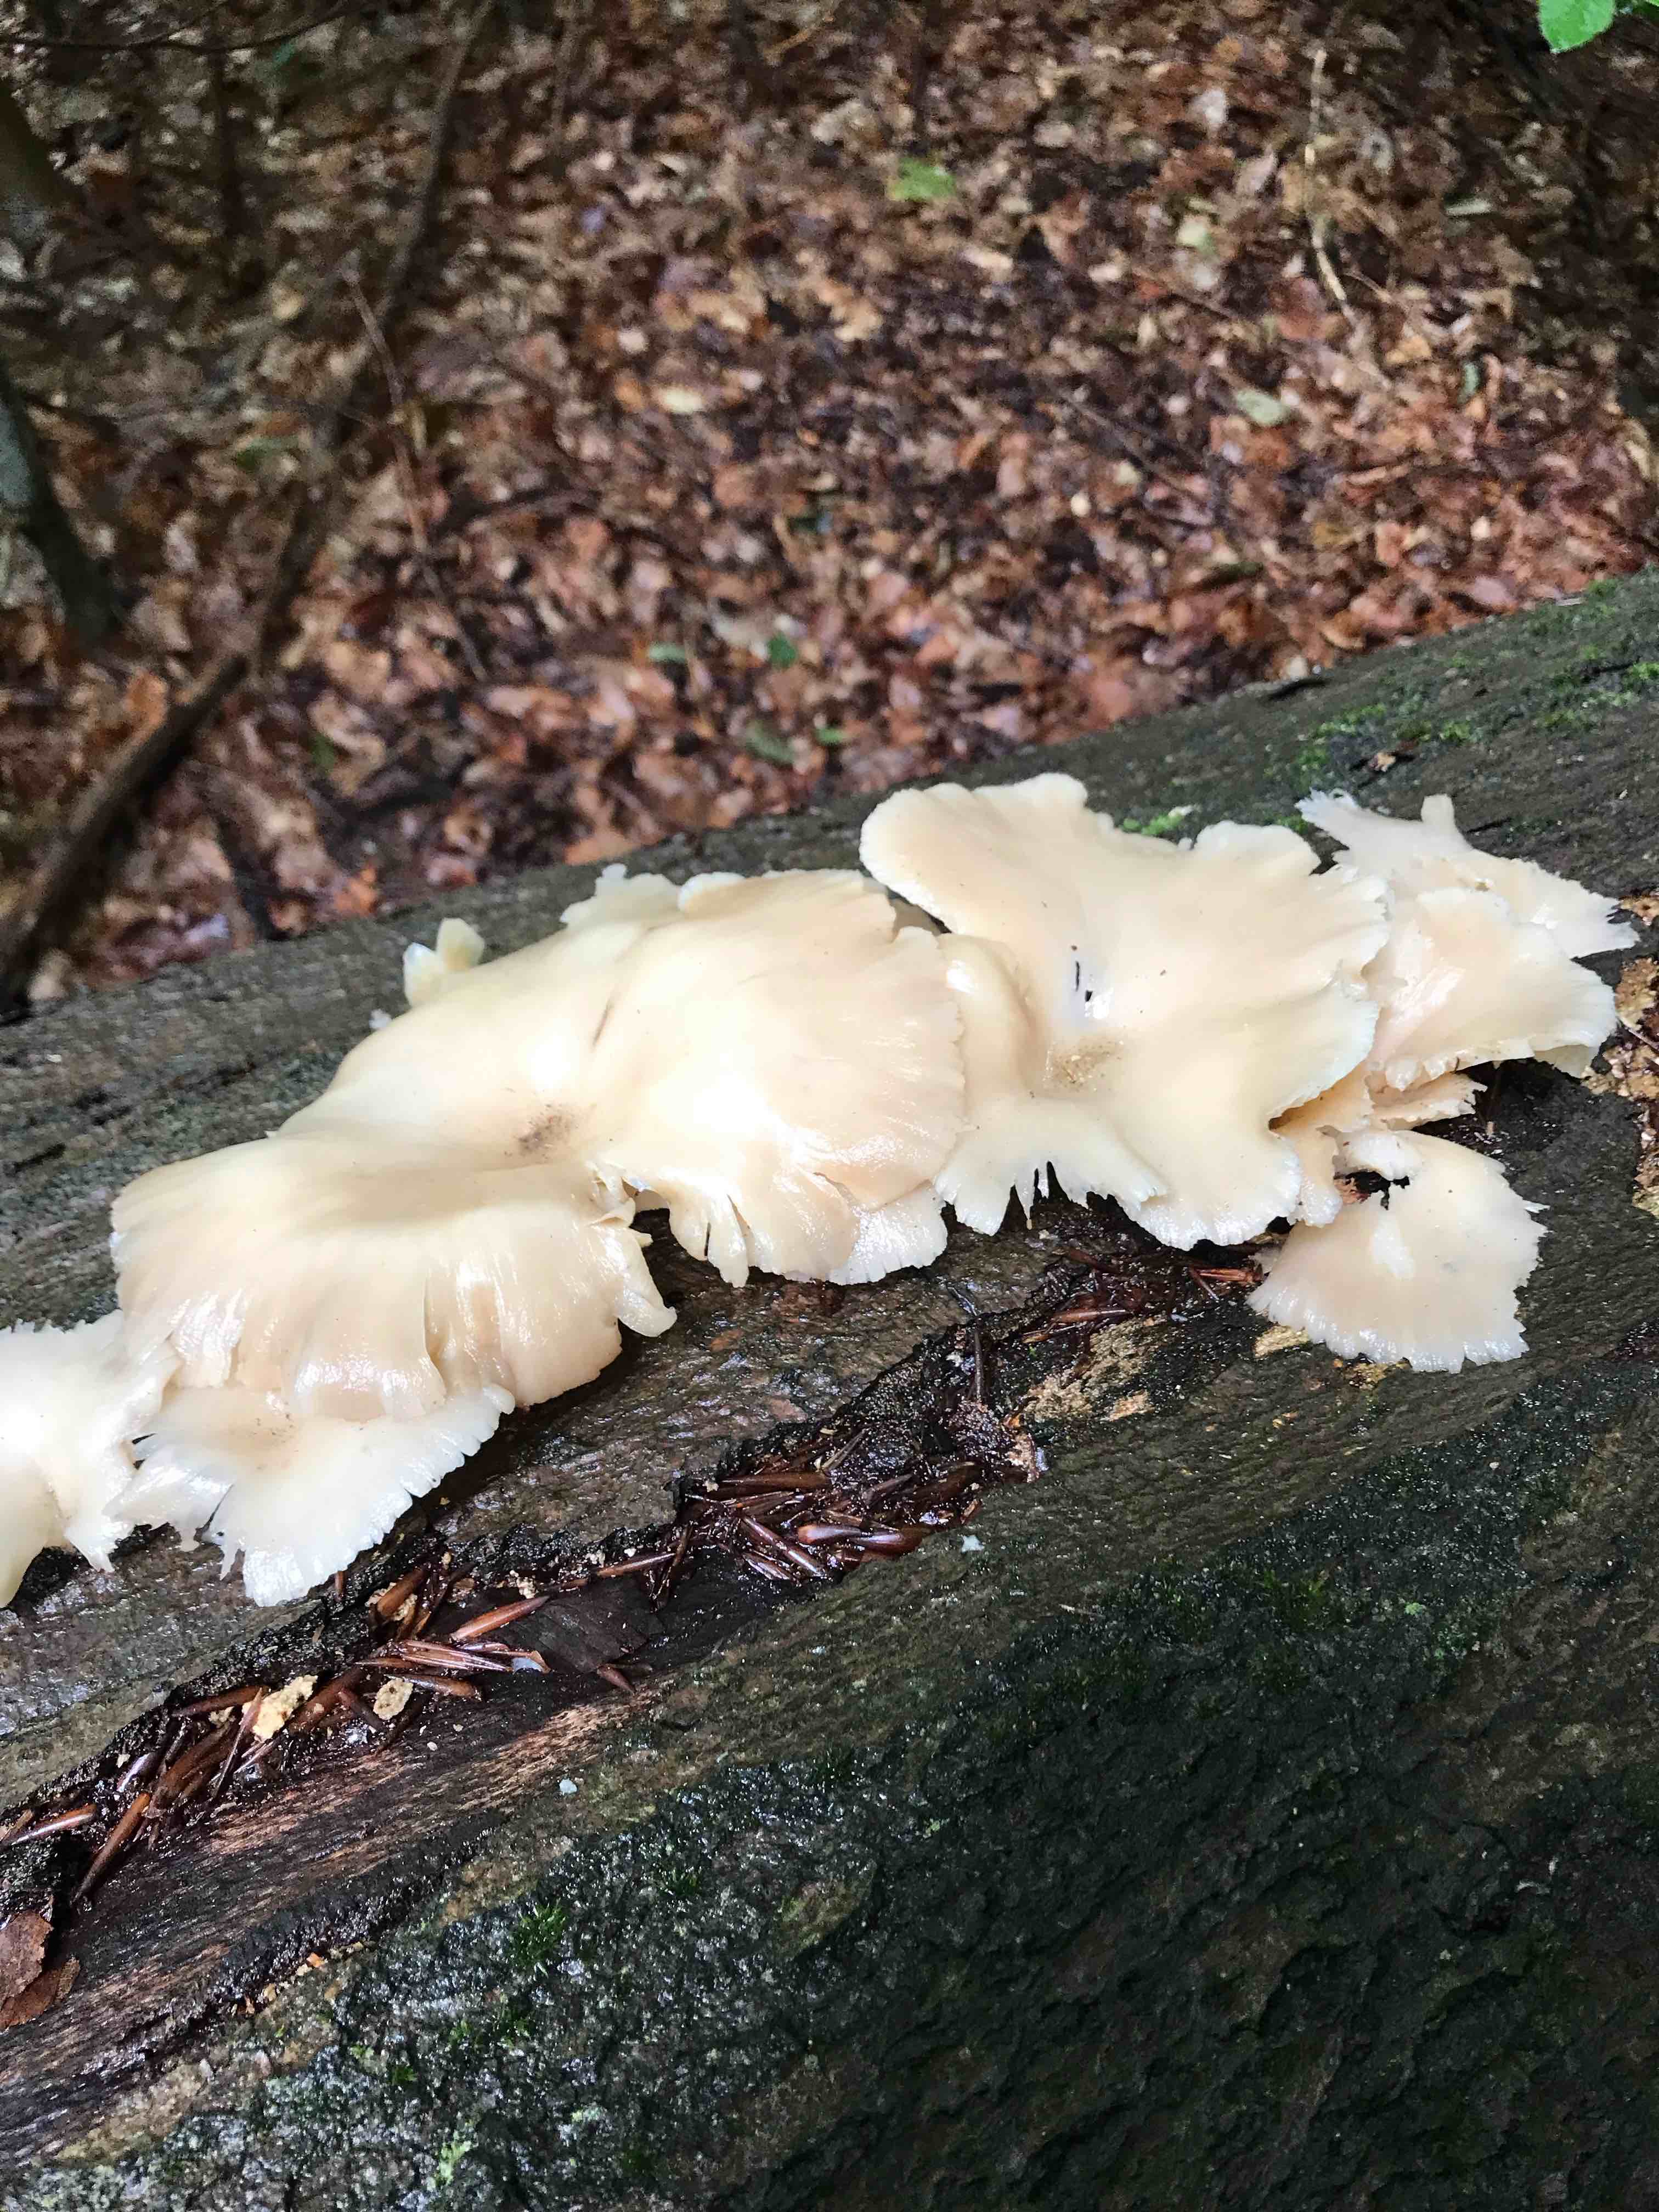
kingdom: Fungi
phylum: Basidiomycota
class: Agaricomycetes
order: Agaricales
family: Pleurotaceae
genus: Pleurotus
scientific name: Pleurotus pulmonarius
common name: sommer-østershat
